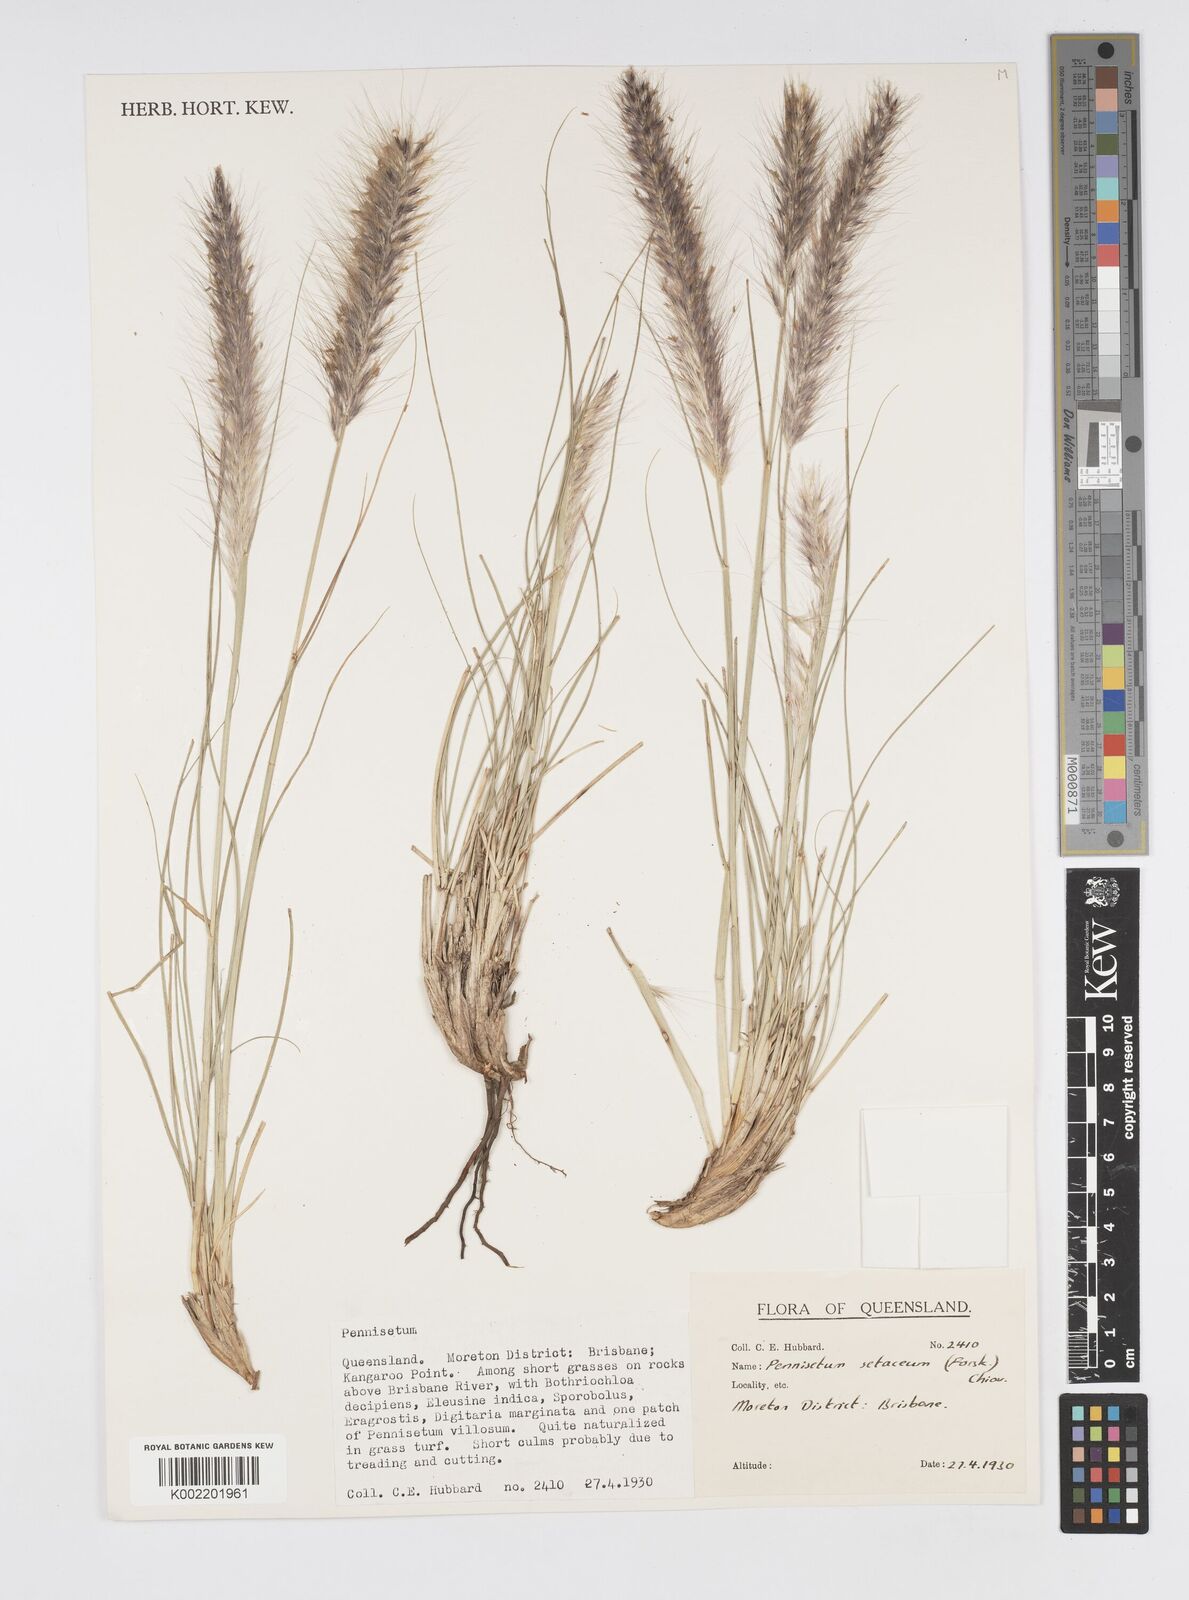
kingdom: Plantae
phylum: Tracheophyta
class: Liliopsida
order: Poales
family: Poaceae
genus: Cenchrus
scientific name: Cenchrus setaceus
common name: Crimson fountaingrass
